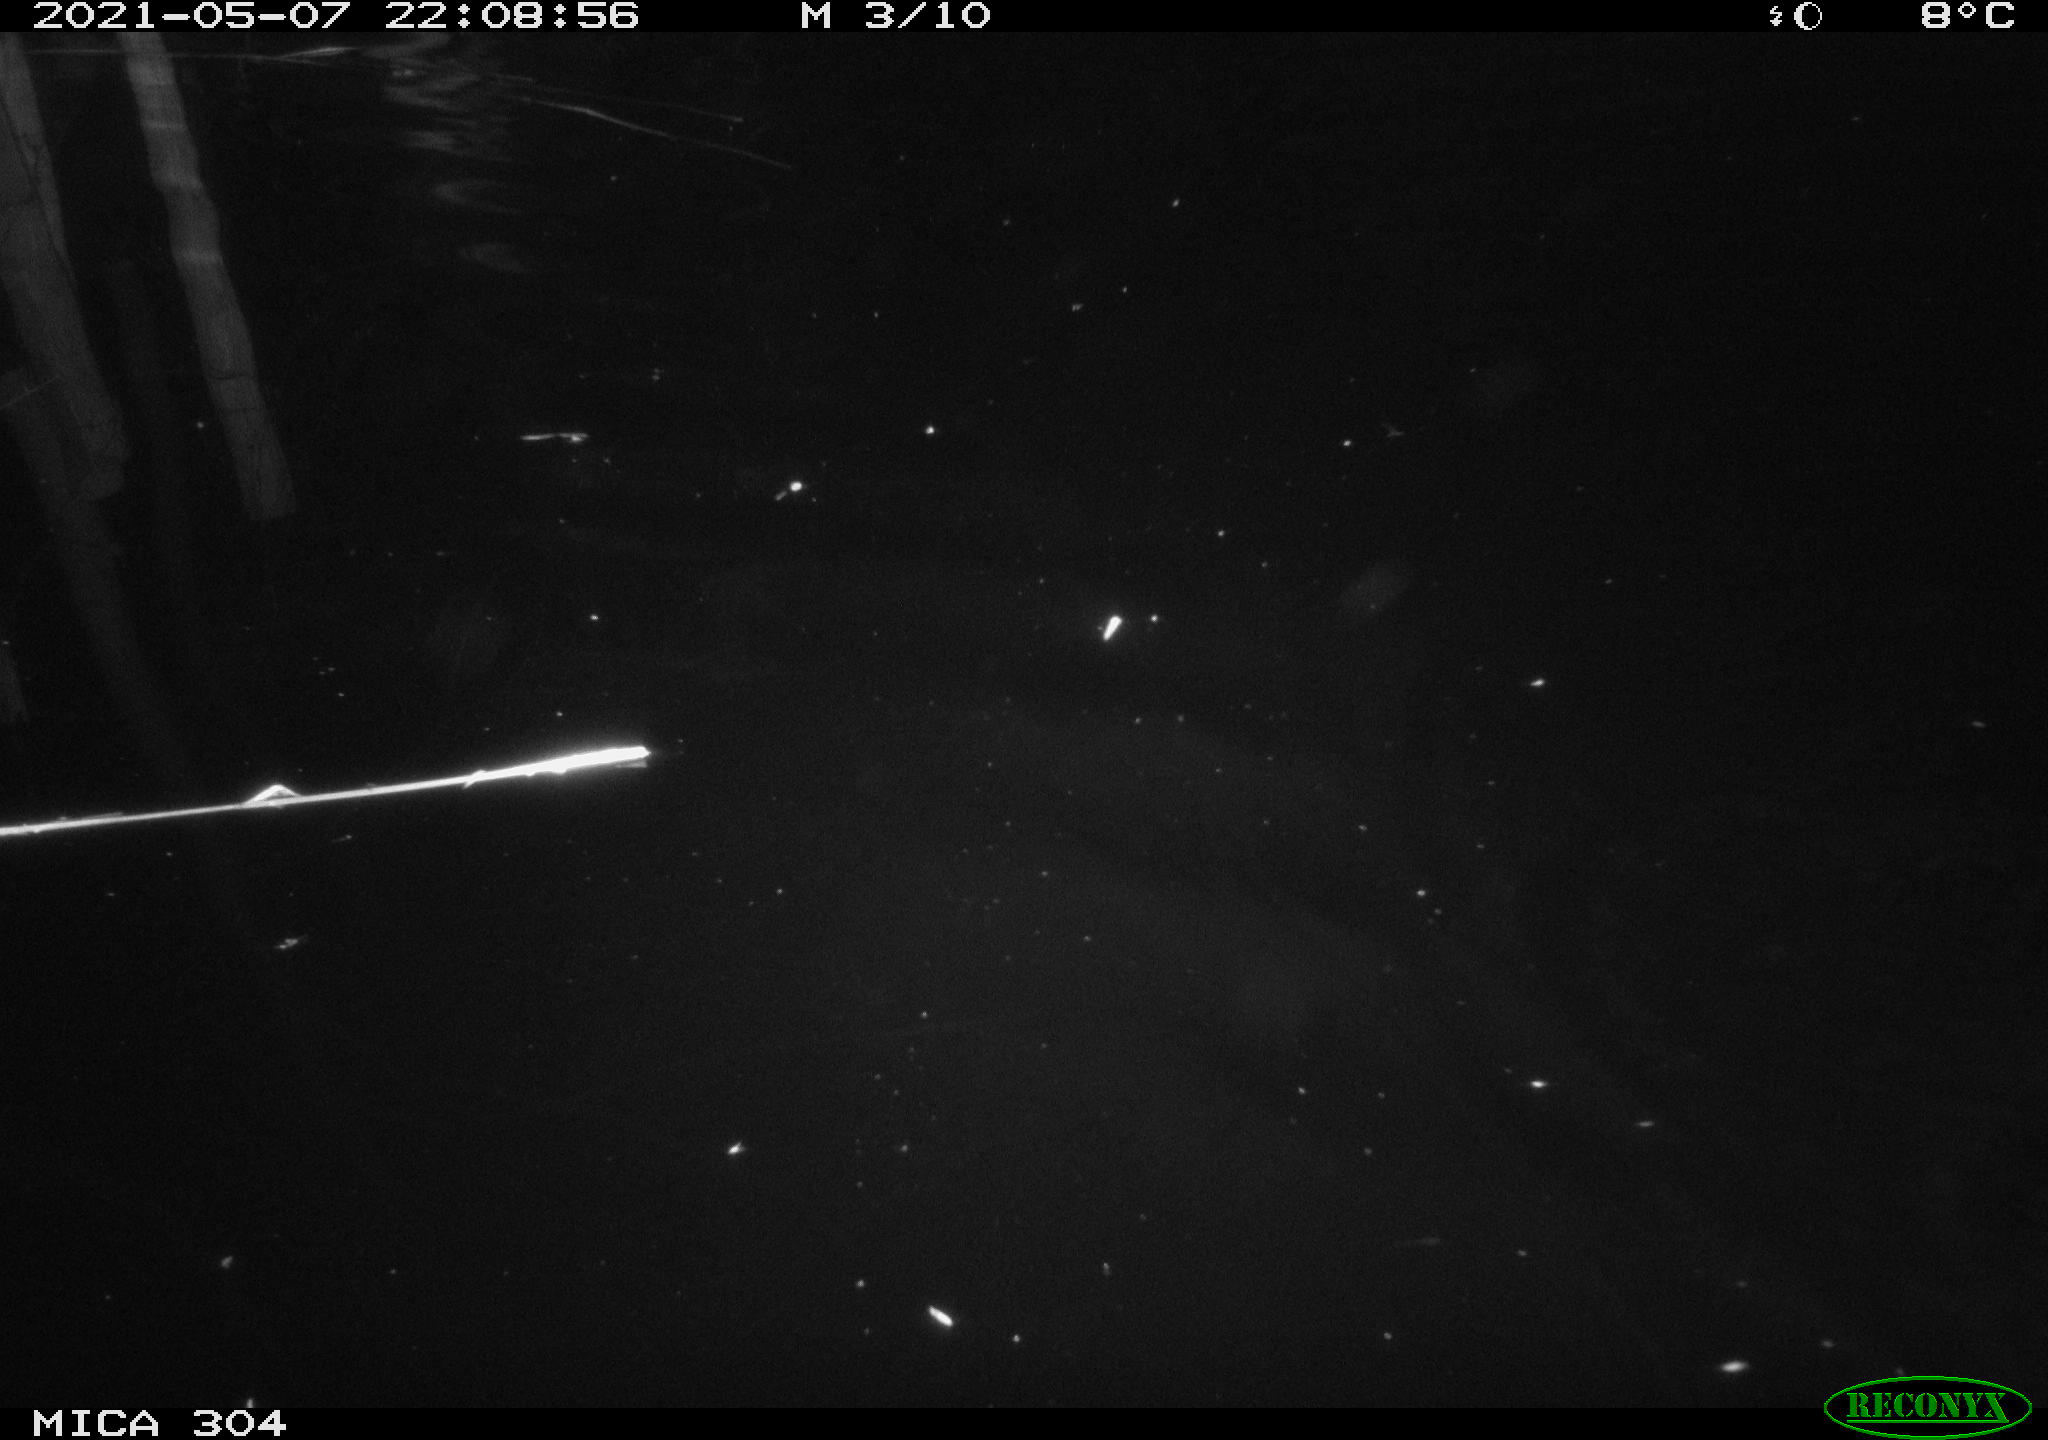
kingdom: Animalia
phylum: Chordata
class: Mammalia
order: Rodentia
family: Cricetidae
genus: Ondatra
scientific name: Ondatra zibethicus
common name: Muskrat
